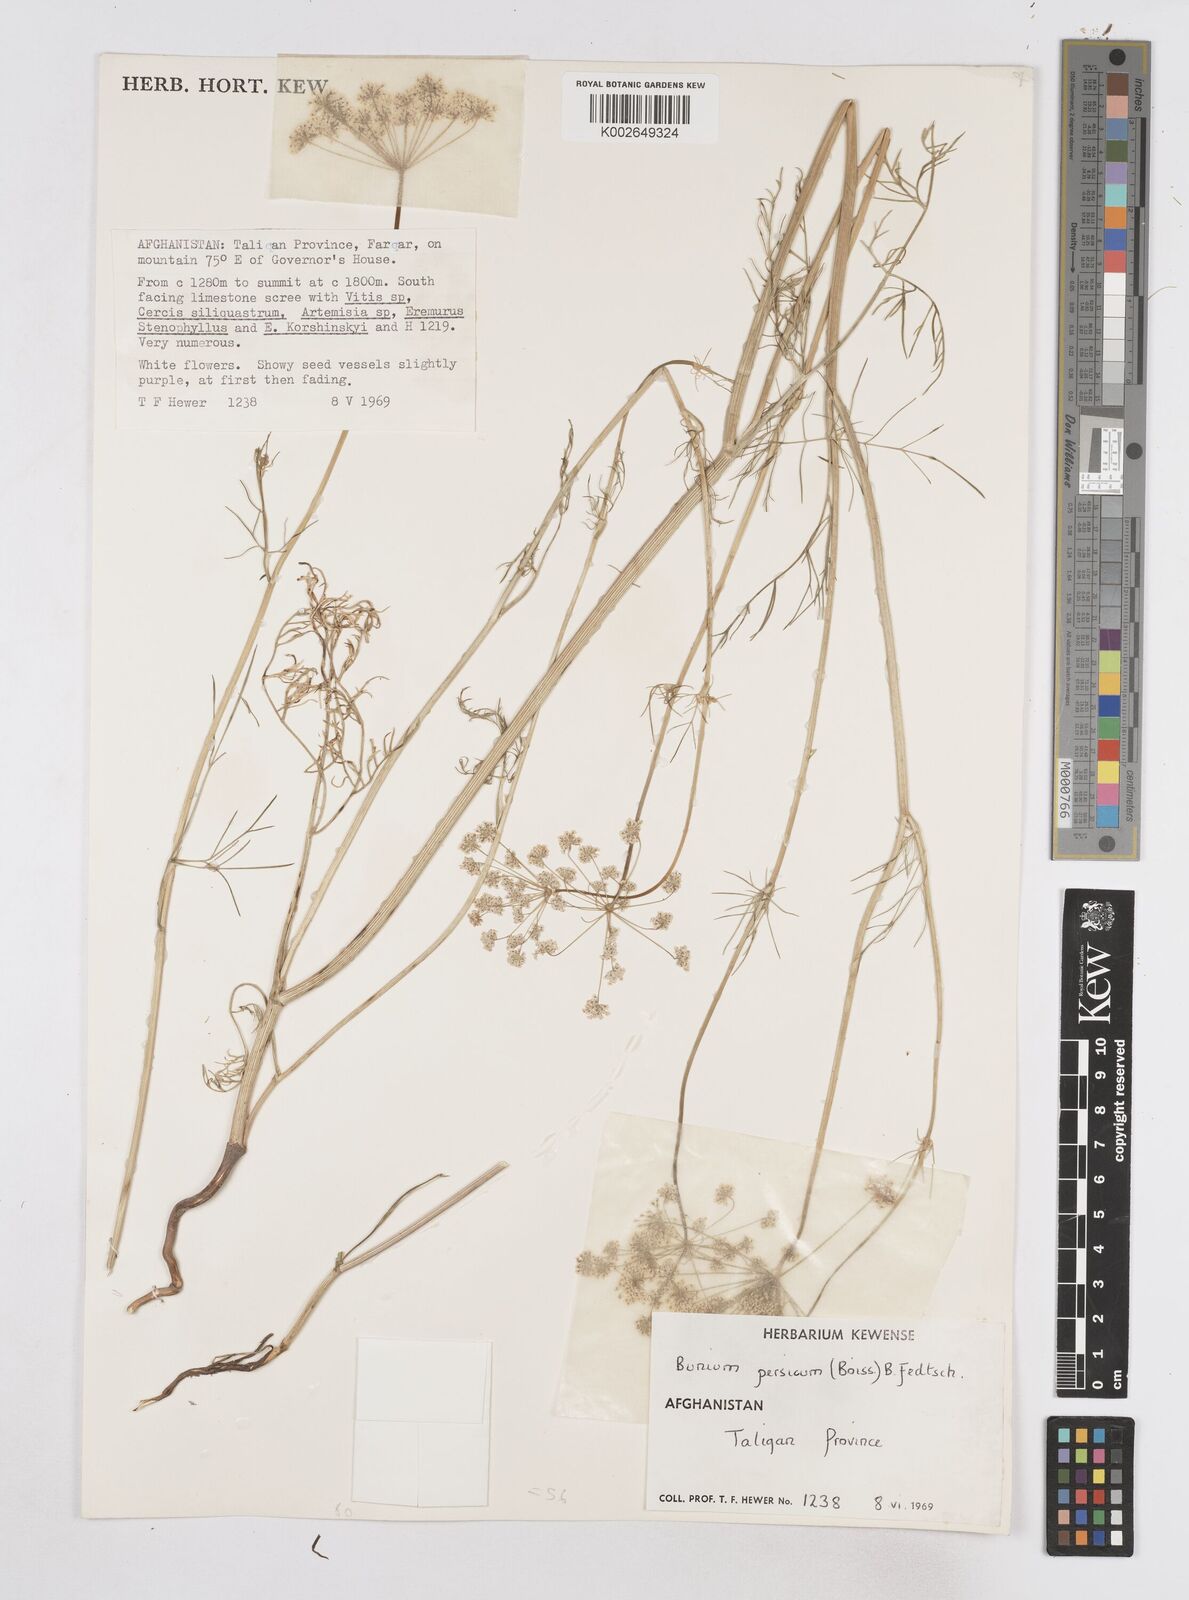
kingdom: Plantae
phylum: Tracheophyta
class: Magnoliopsida
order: Apiales
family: Apiaceae
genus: Elwendia
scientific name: Elwendia persica
